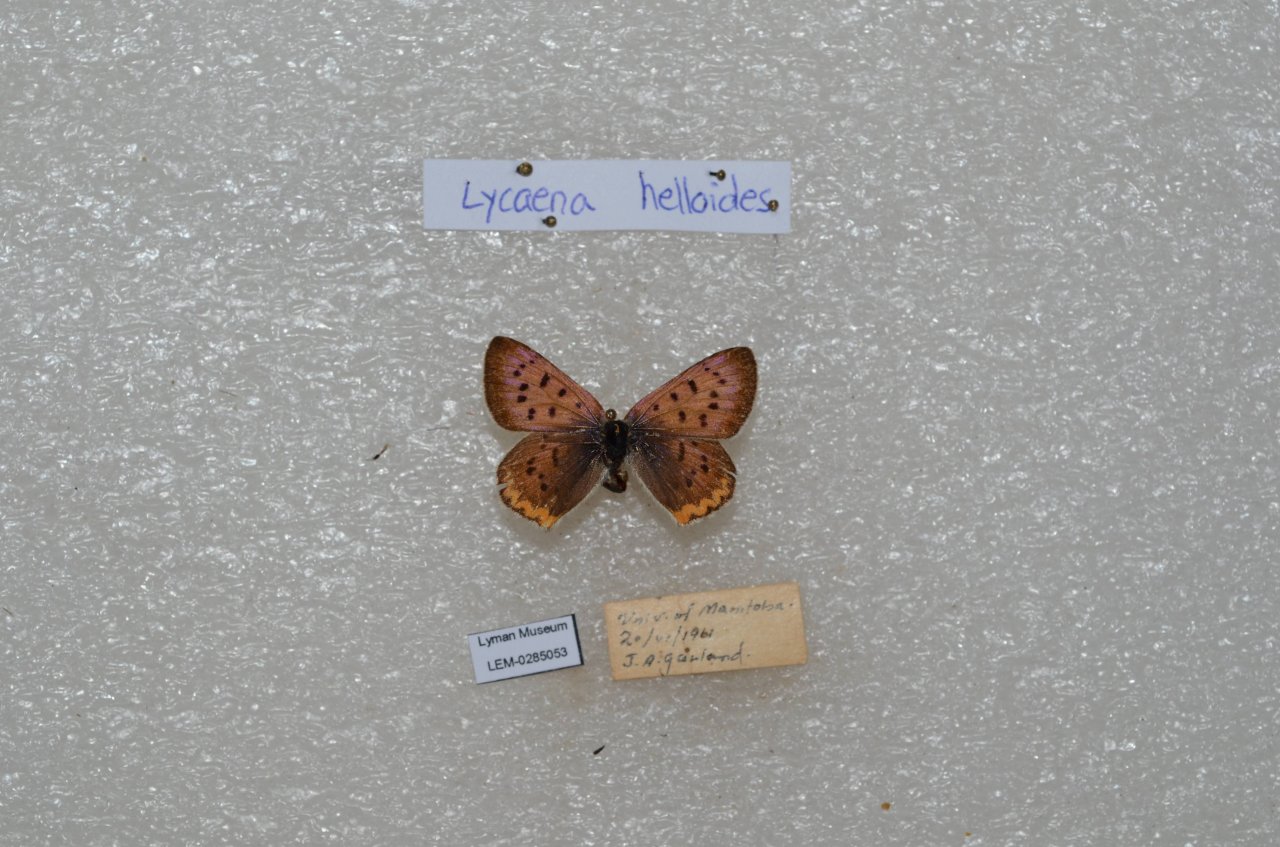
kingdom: Animalia
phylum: Arthropoda
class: Insecta
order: Lepidoptera
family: Sesiidae
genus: Sesia
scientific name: Sesia Lycaena helloides
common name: Purplish Copper
